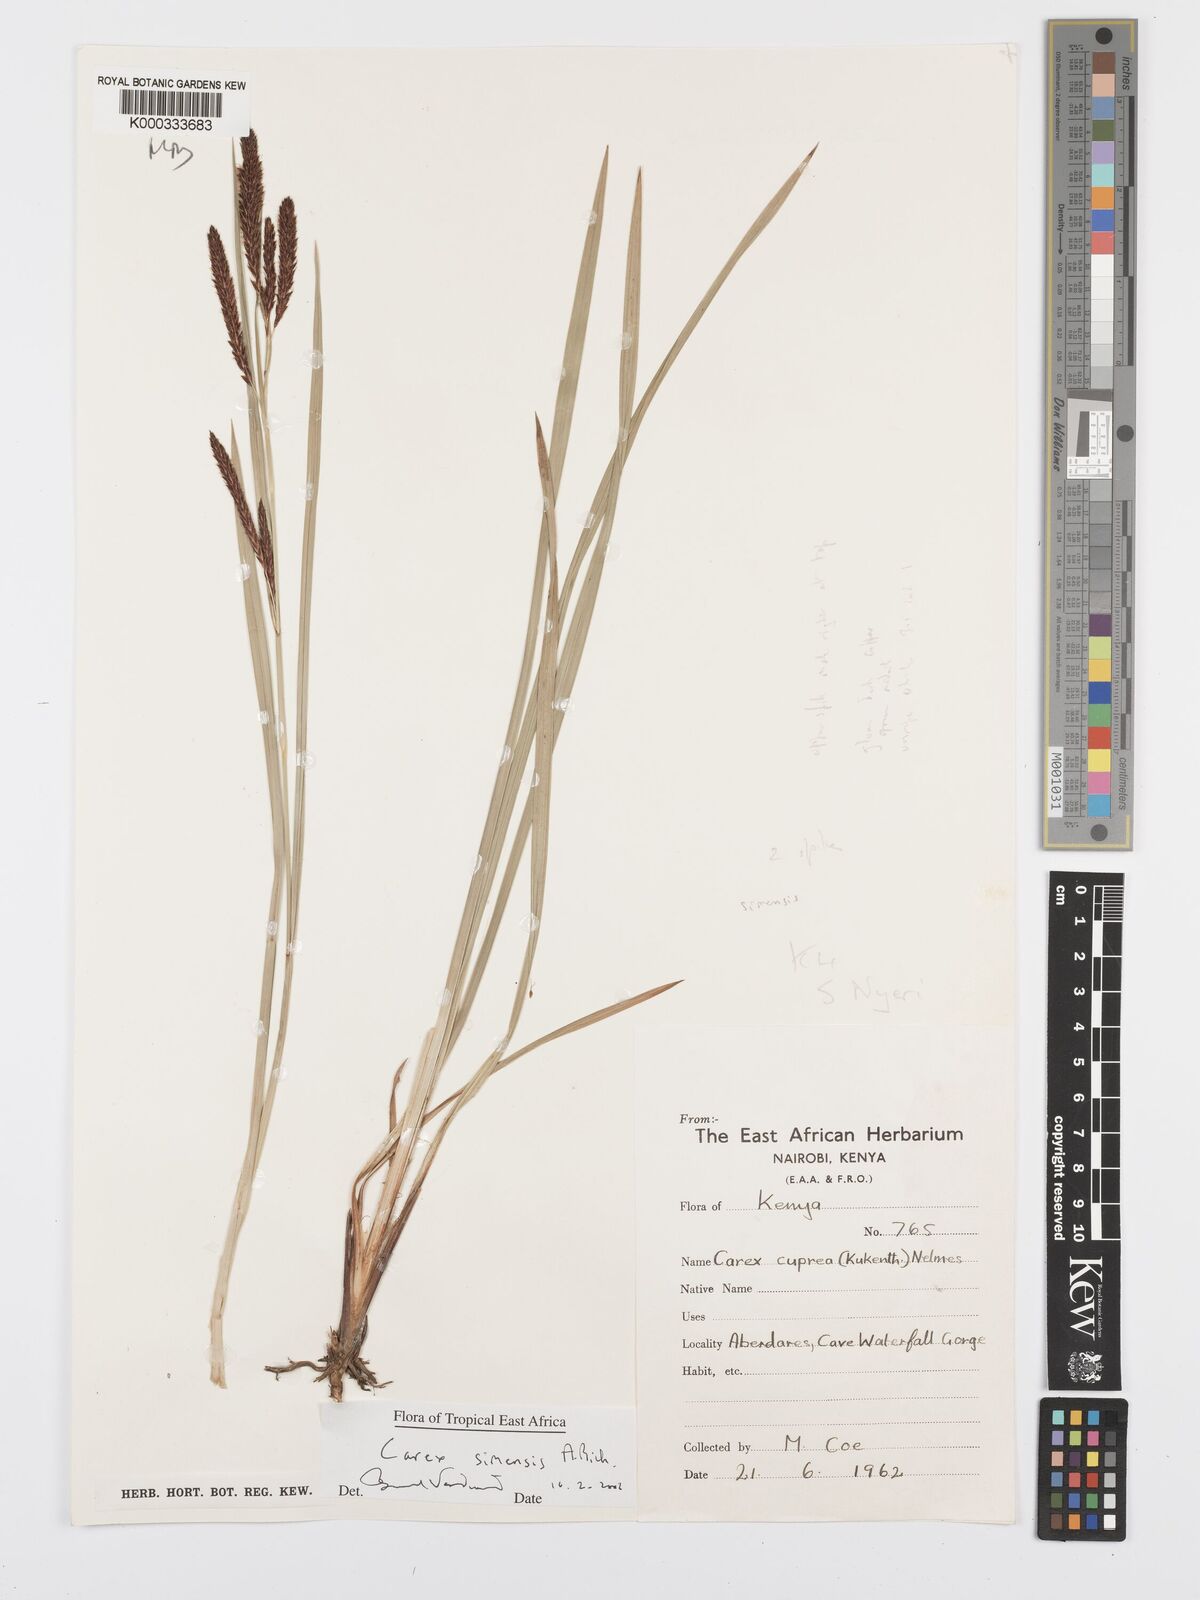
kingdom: Plantae
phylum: Tracheophyta
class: Liliopsida
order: Poales
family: Cyperaceae
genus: Carex
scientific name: Carex simensis
